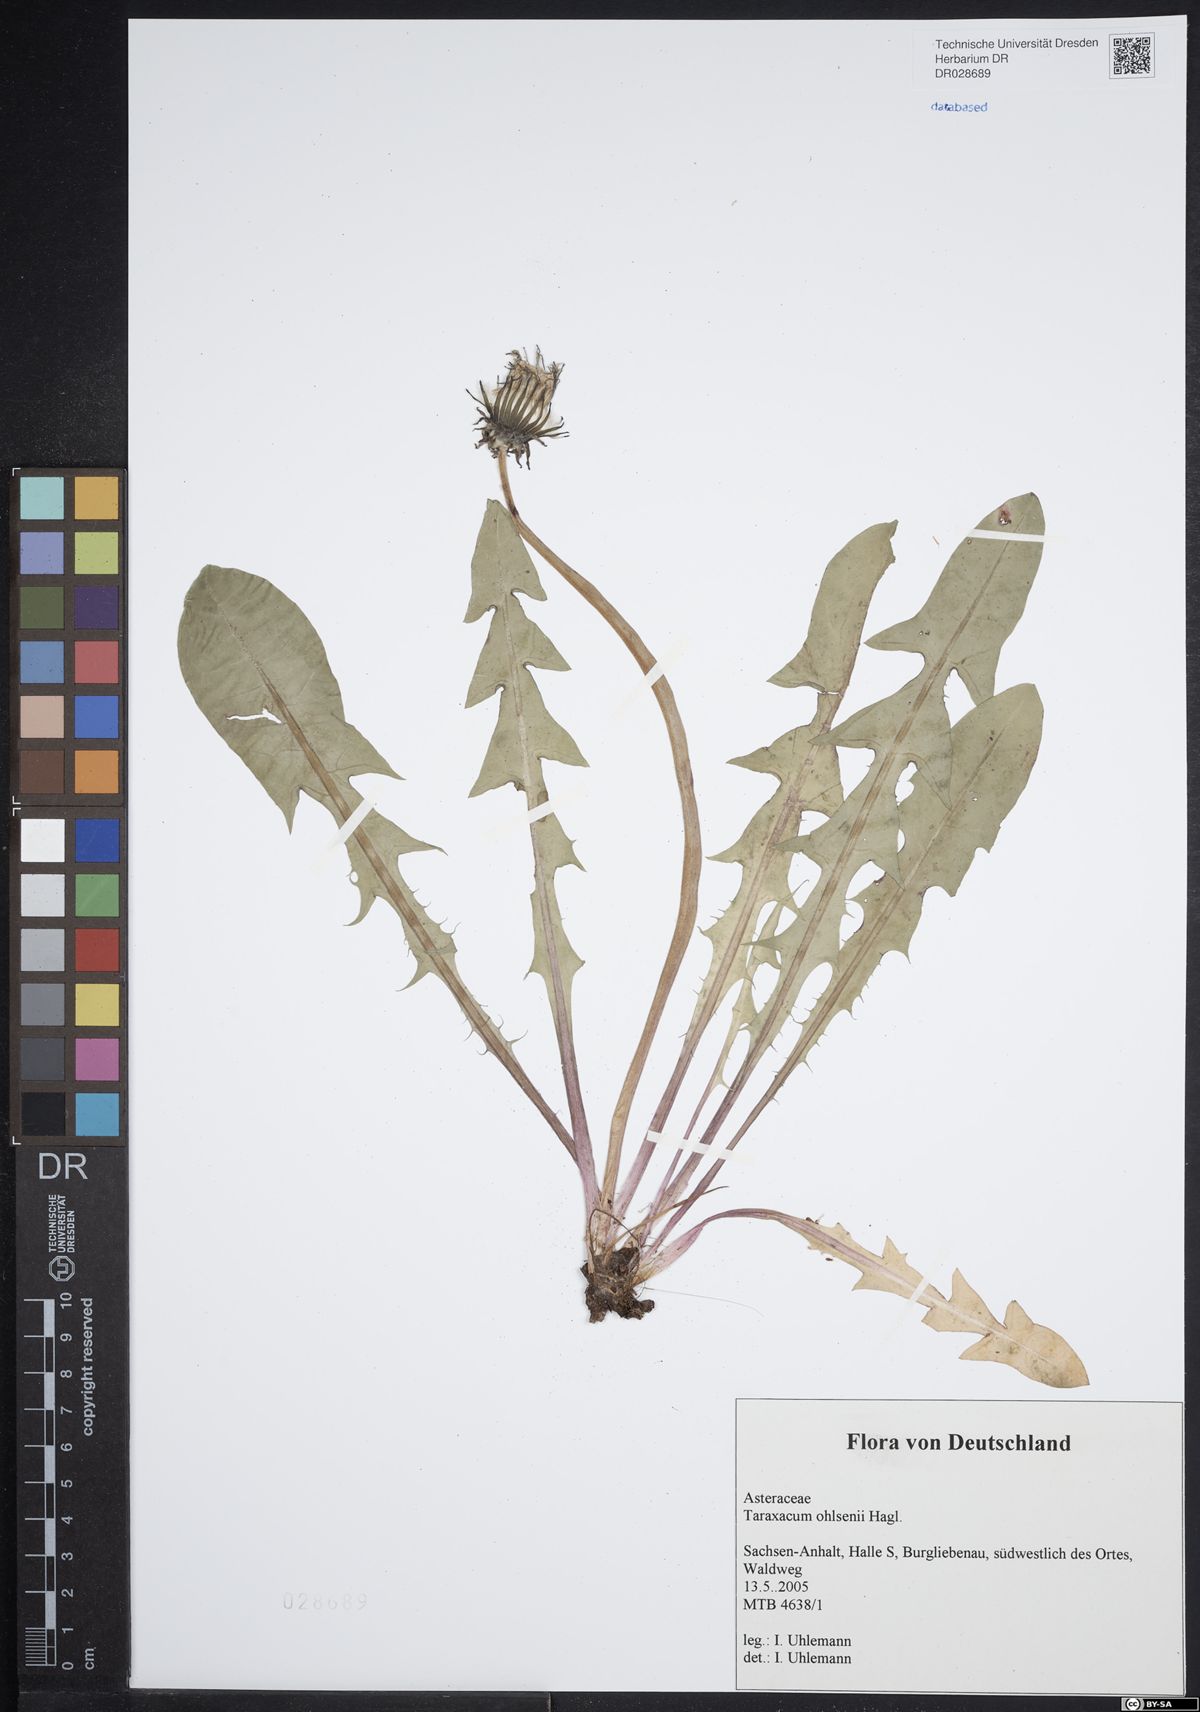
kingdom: Plantae
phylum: Tracheophyta
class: Magnoliopsida
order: Asterales
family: Asteraceae
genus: Taraxacum
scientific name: Taraxacum ohlsenii
